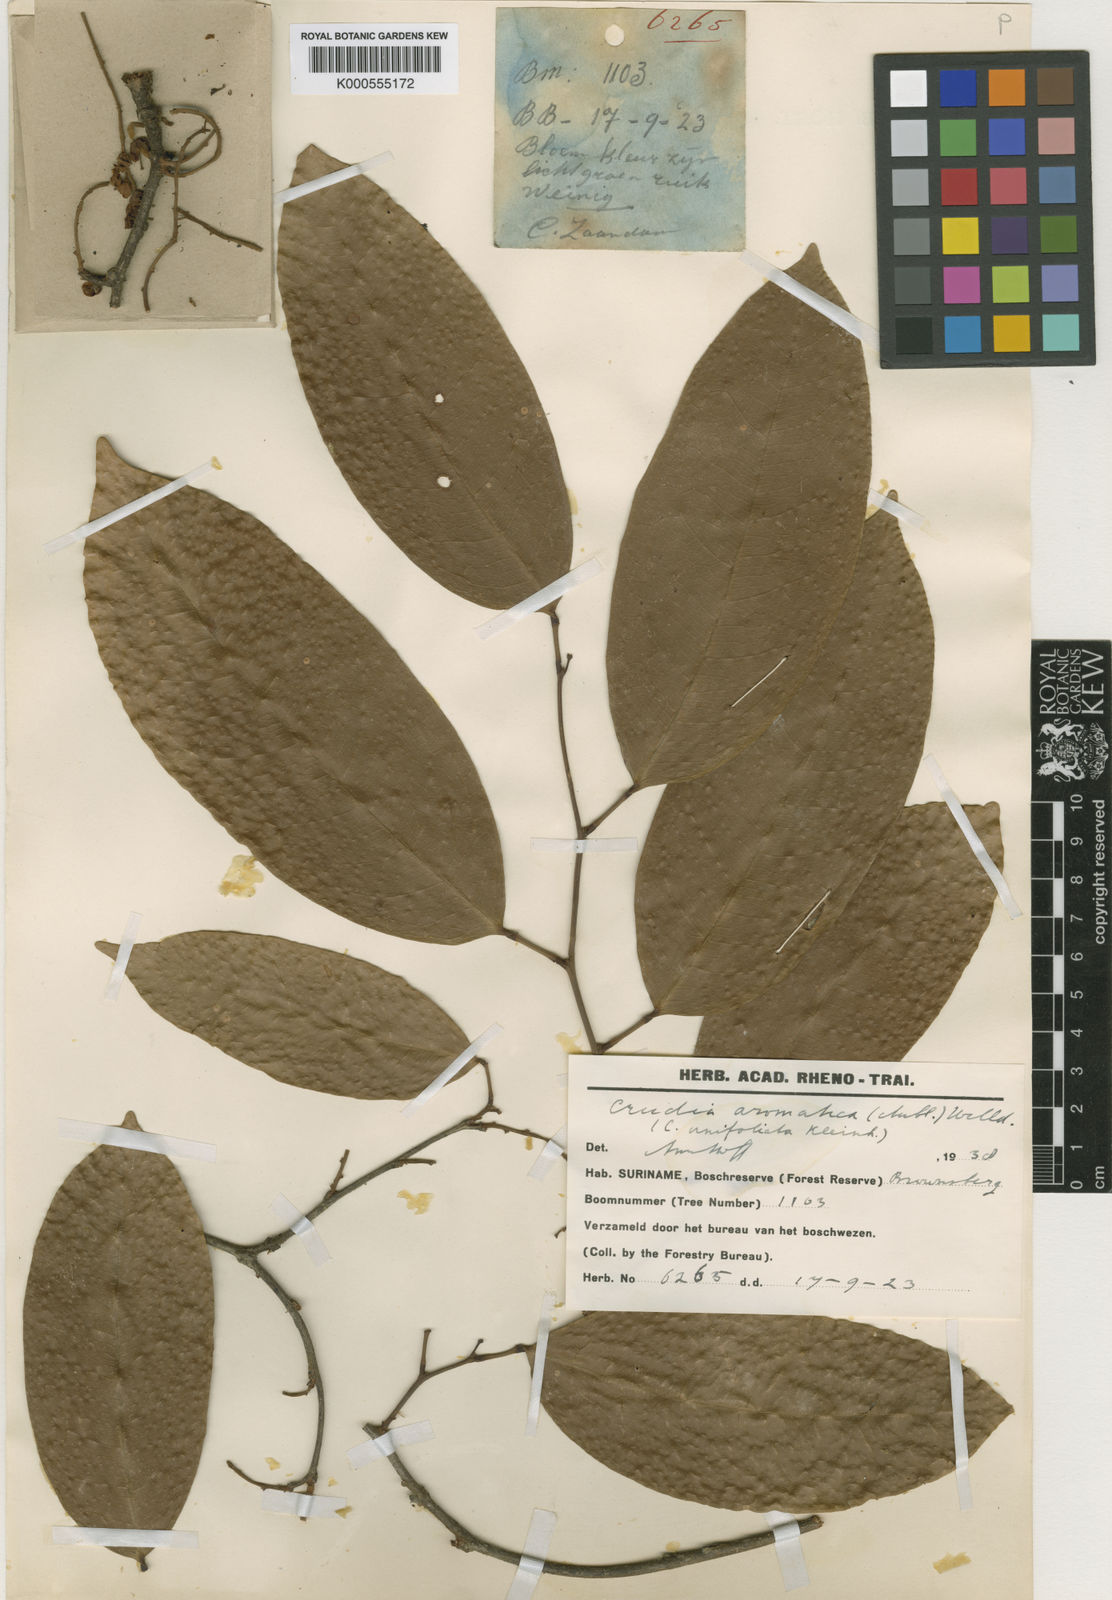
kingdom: Plantae
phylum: Tracheophyta
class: Magnoliopsida
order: Fabales
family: Fabaceae
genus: Crudia
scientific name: Crudia
